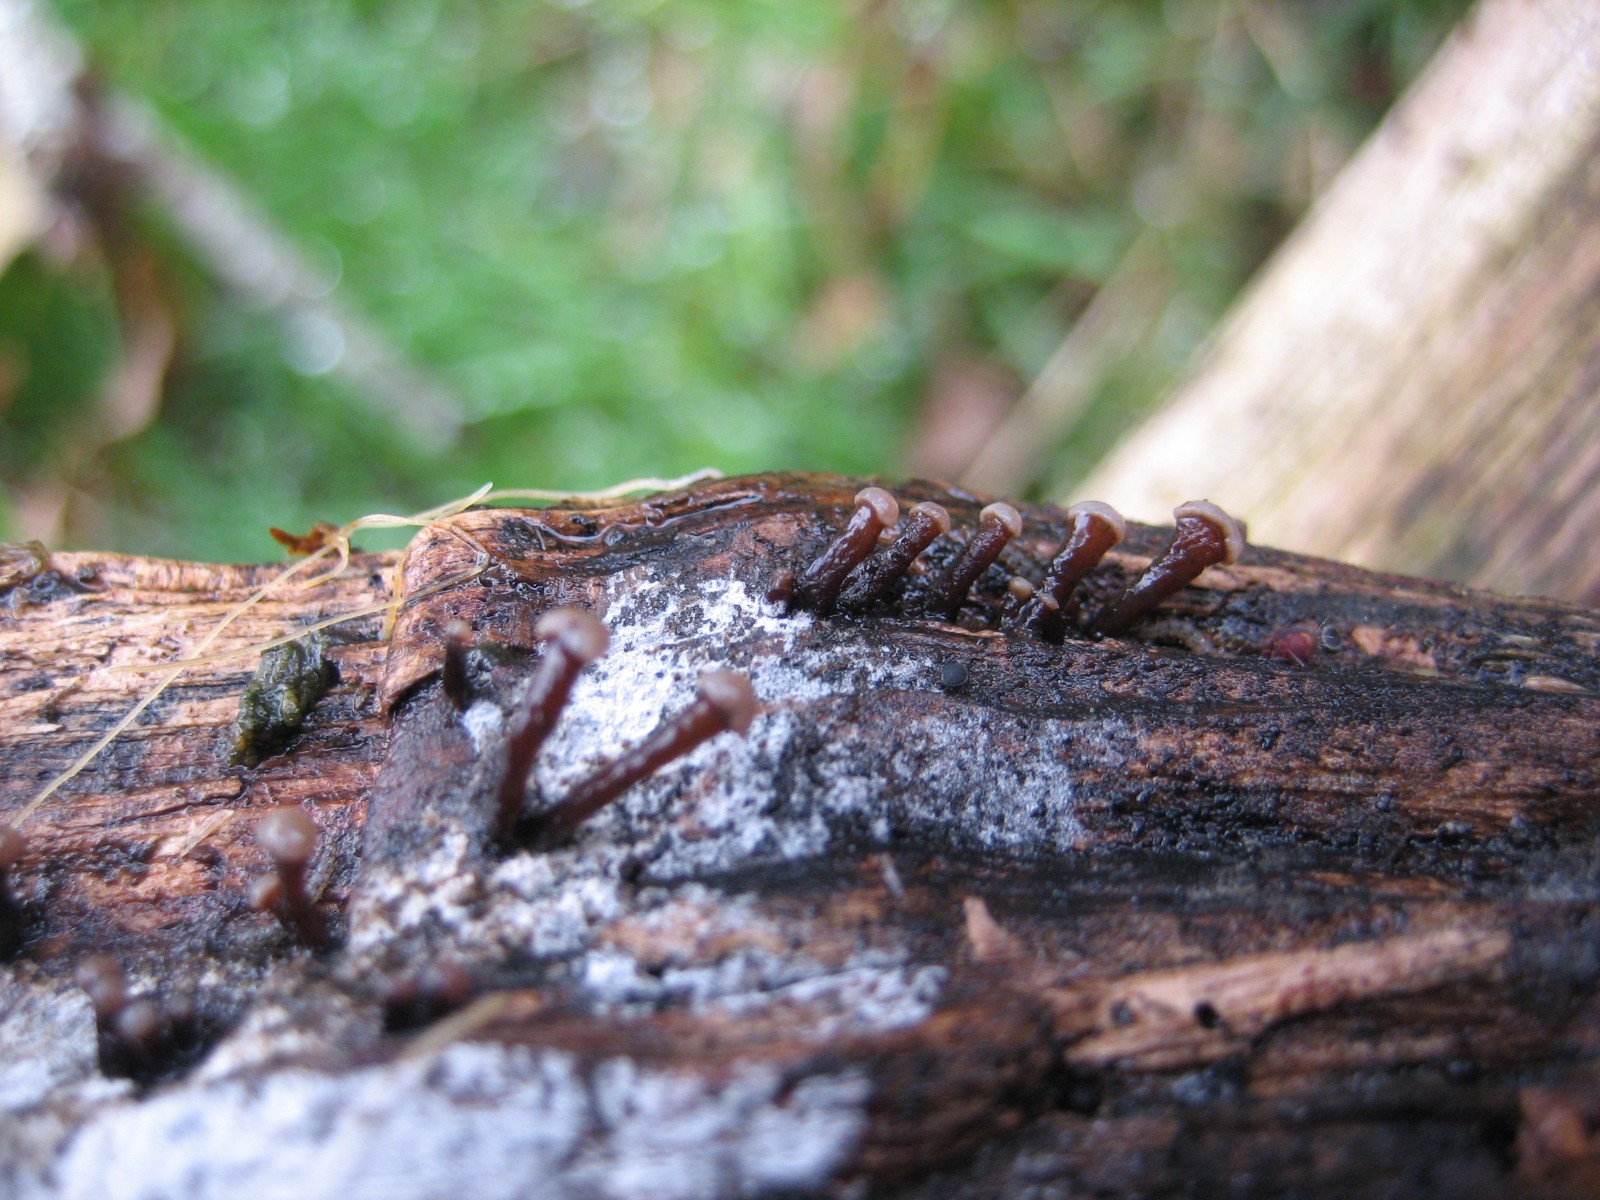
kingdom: Fungi
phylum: Ascomycota
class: Leotiomycetes
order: Helotiales
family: Gelatinodiscaceae
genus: Ascocoryne
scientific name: Ascocoryne albida
